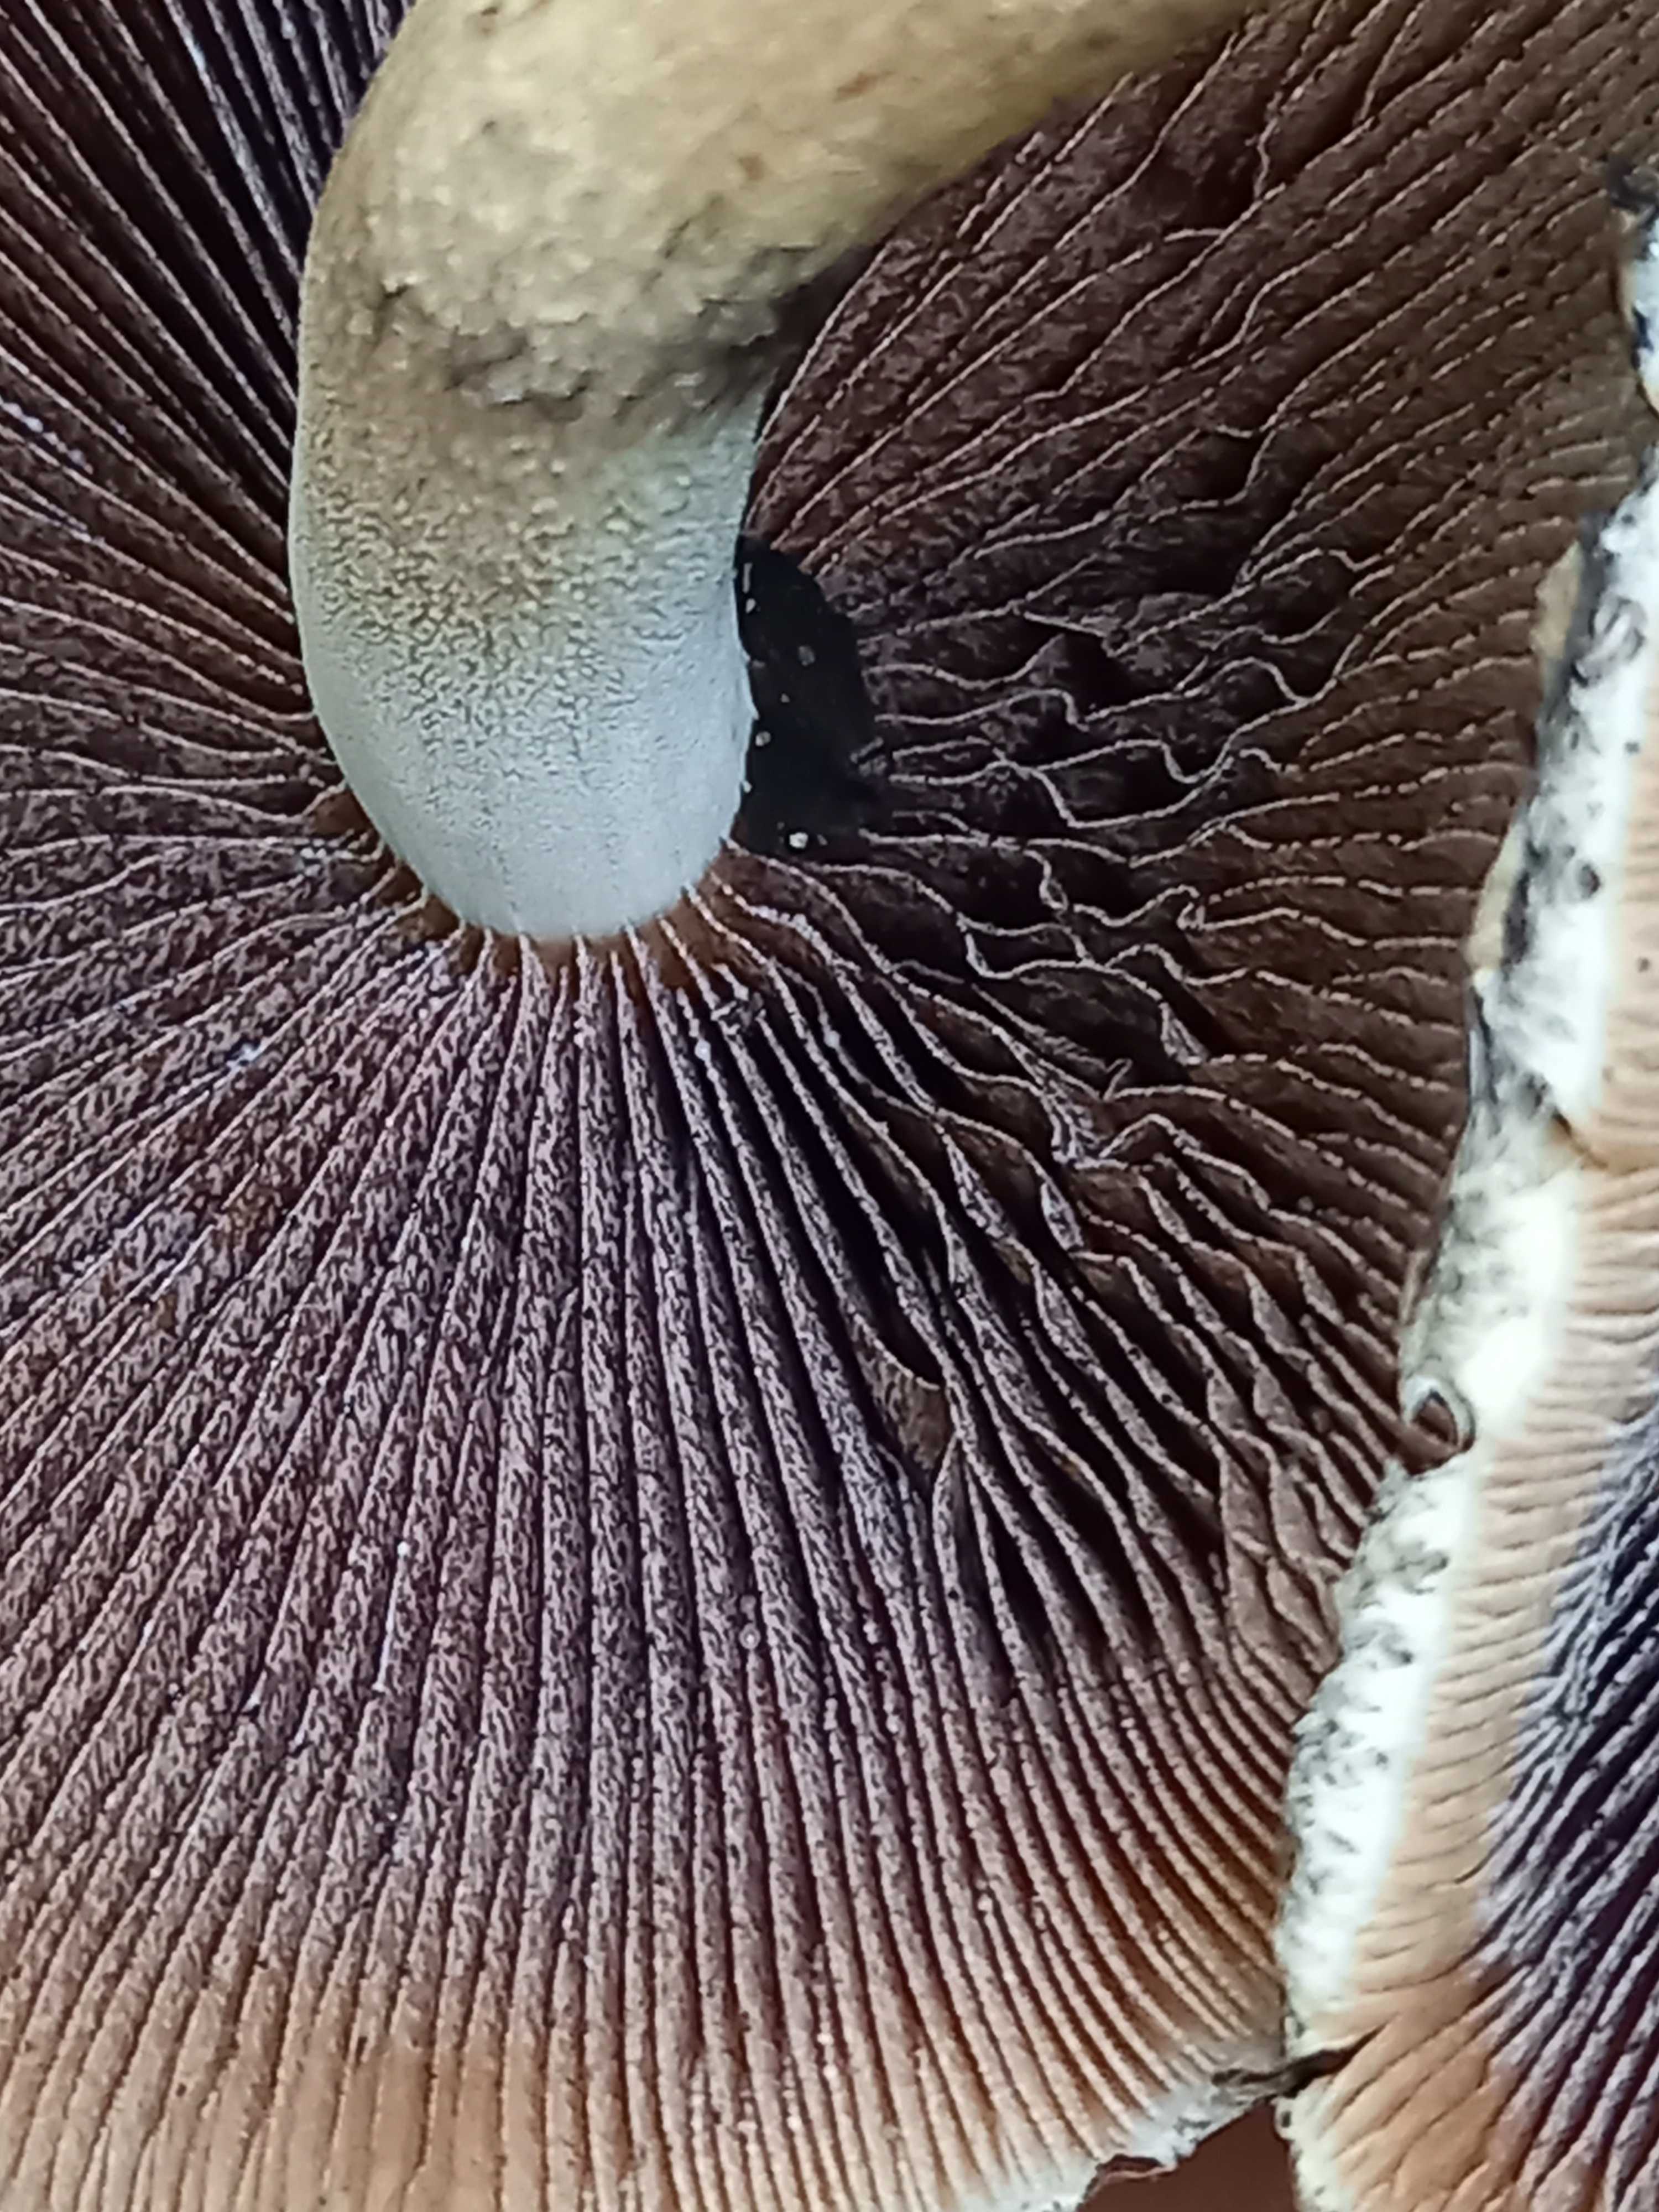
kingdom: Fungi
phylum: Basidiomycota
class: Agaricomycetes
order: Agaricales
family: Psathyrellaceae
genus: Lacrymaria
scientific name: Lacrymaria lacrymabunda
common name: grædende mørkhat
